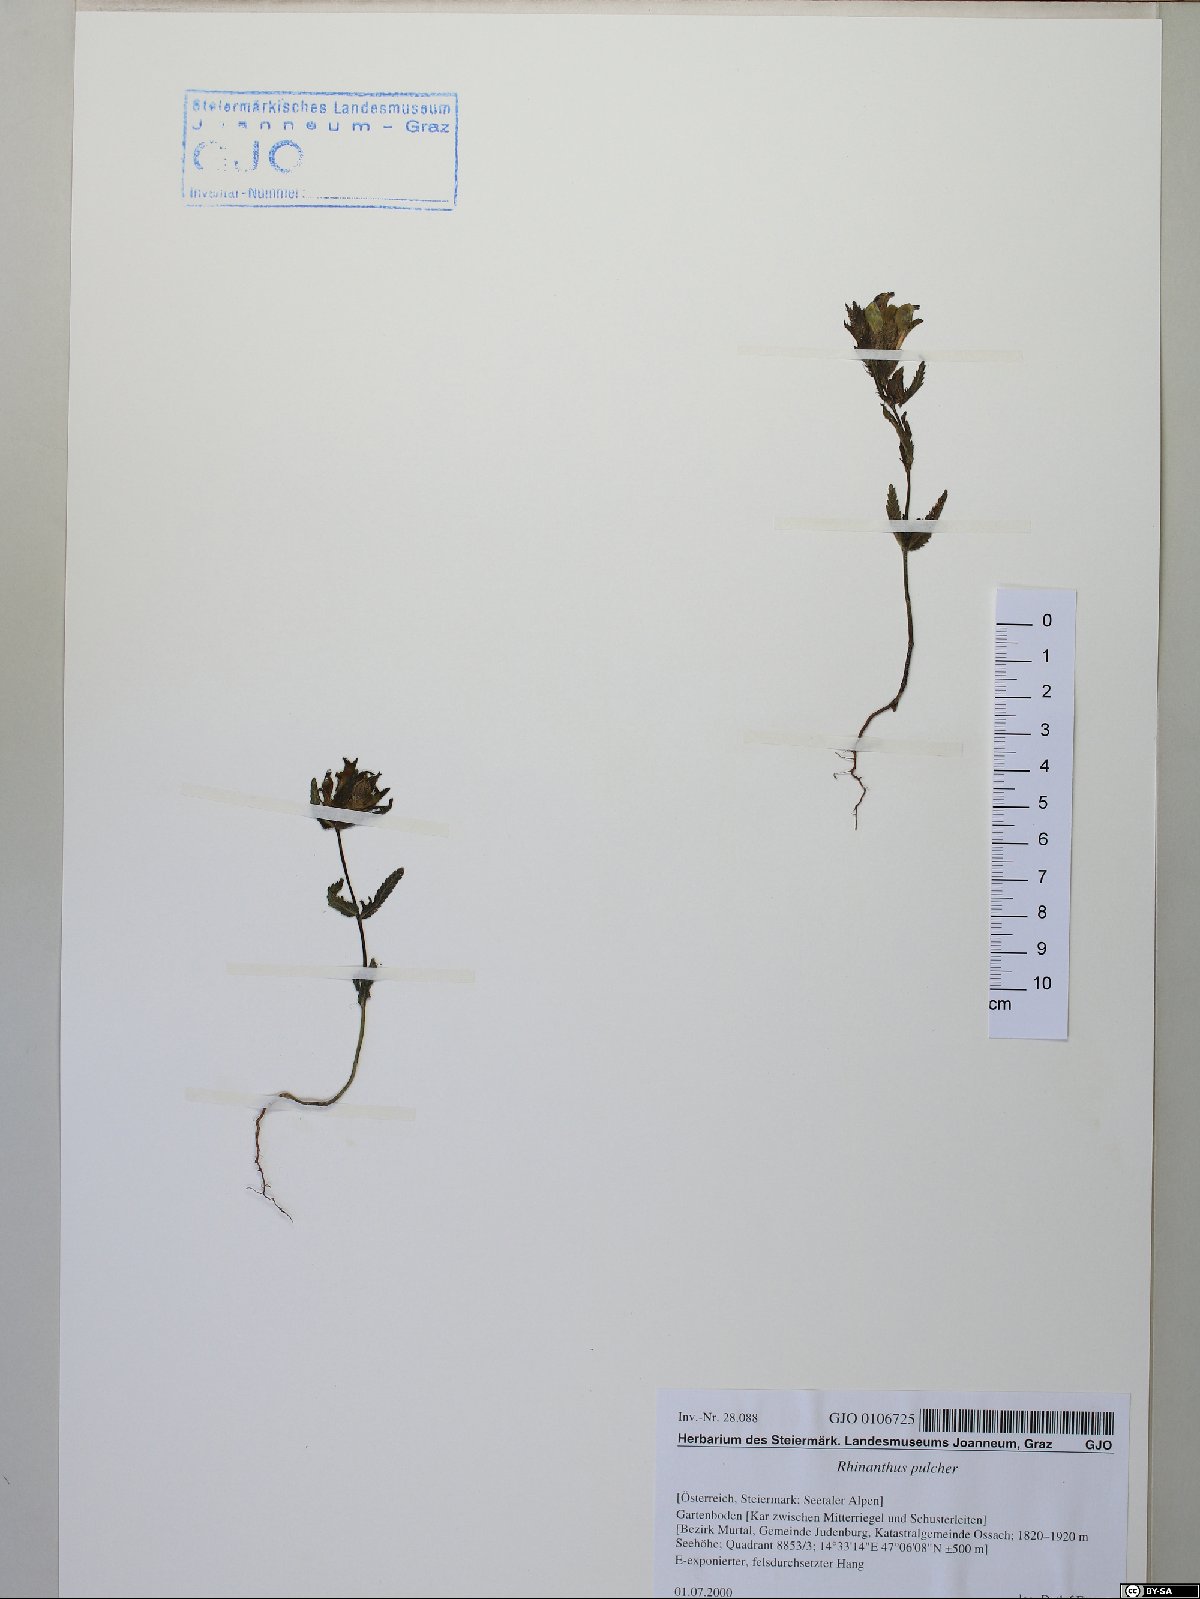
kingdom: Plantae
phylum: Tracheophyta
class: Magnoliopsida
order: Lamiales
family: Orobanchaceae
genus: Rhinanthus
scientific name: Rhinanthus riphaeus
